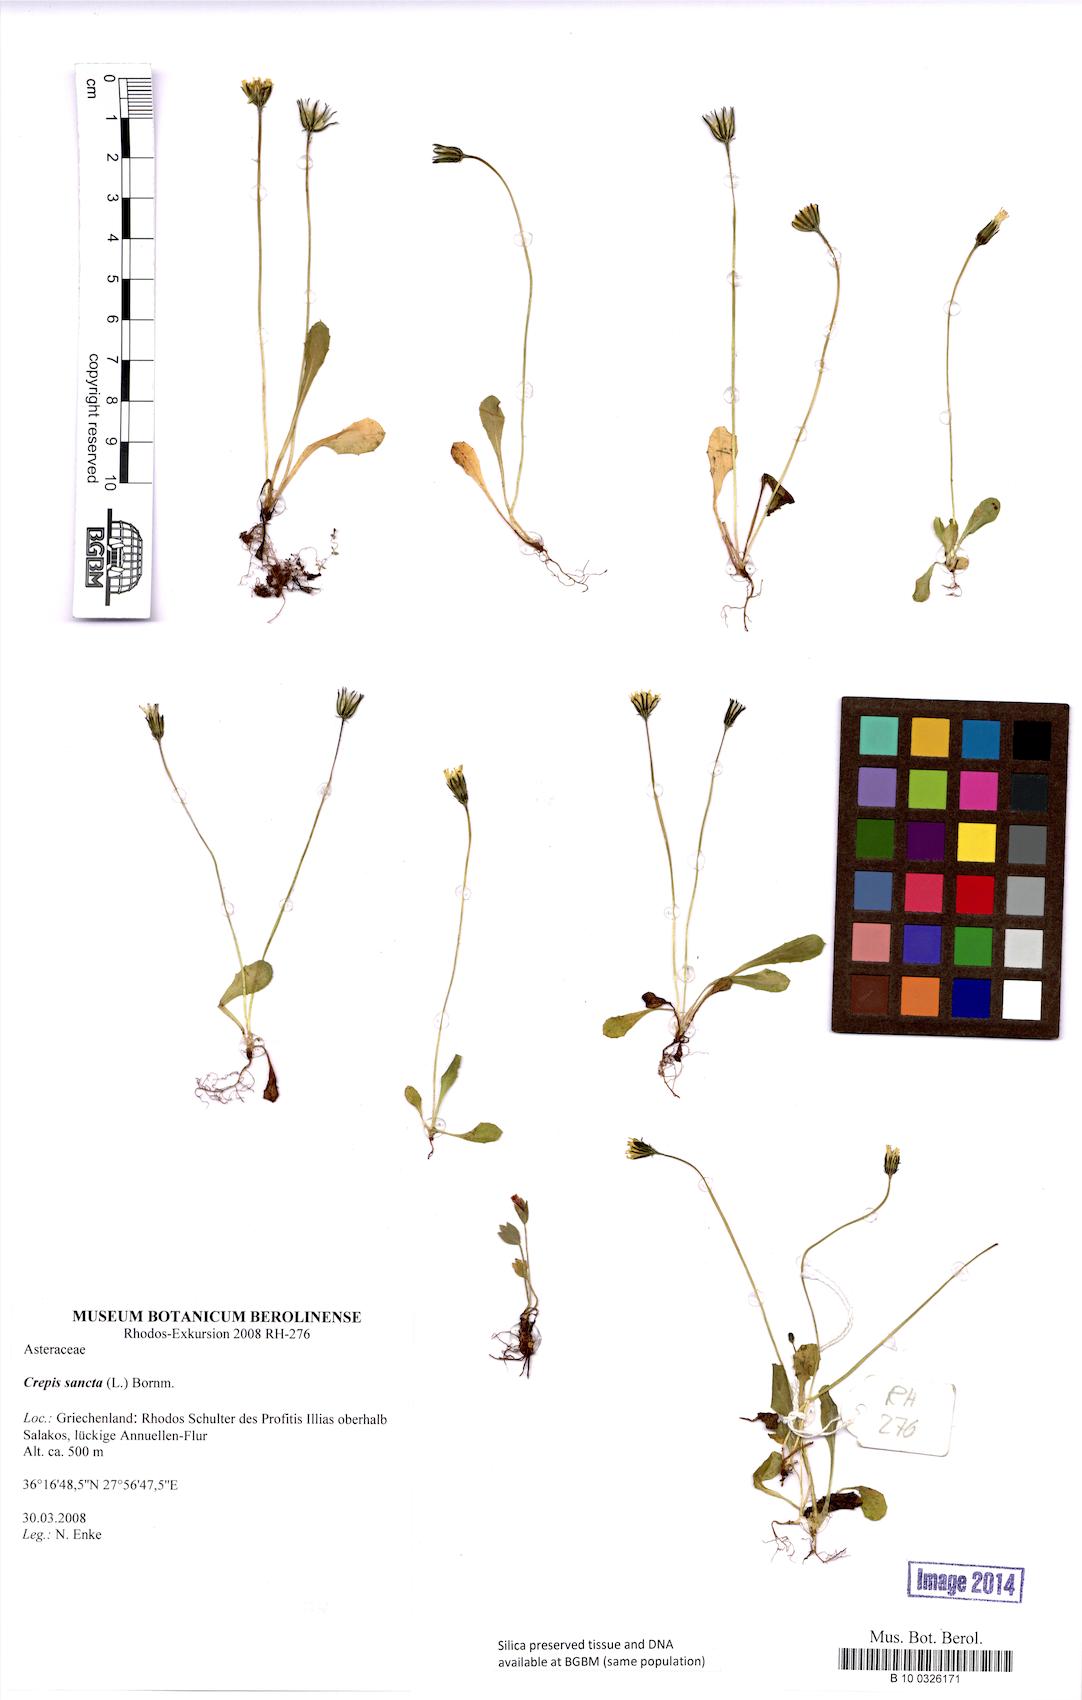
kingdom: Plantae
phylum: Tracheophyta
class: Magnoliopsida
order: Asterales
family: Asteraceae
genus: Crepis
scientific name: Crepis sancta
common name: Hawk's-beard
